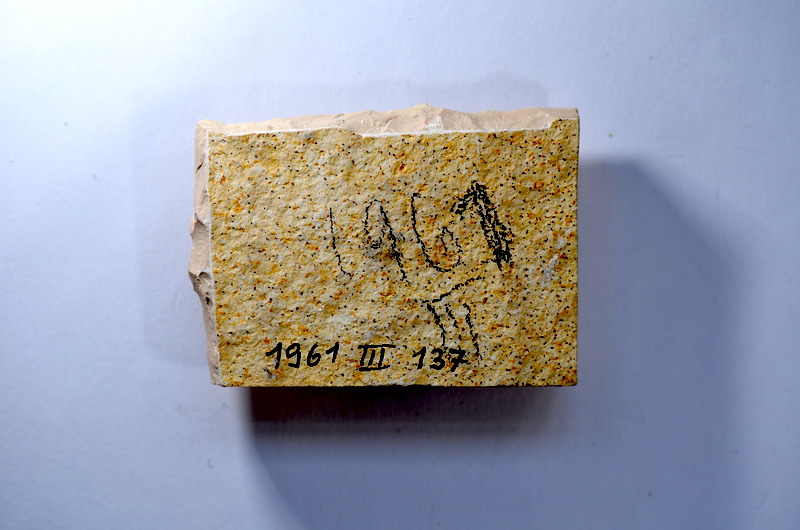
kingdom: Animalia
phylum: Chordata
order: Salmoniformes
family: Orthogonikleithridae
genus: Leptolepides
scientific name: Leptolepides
